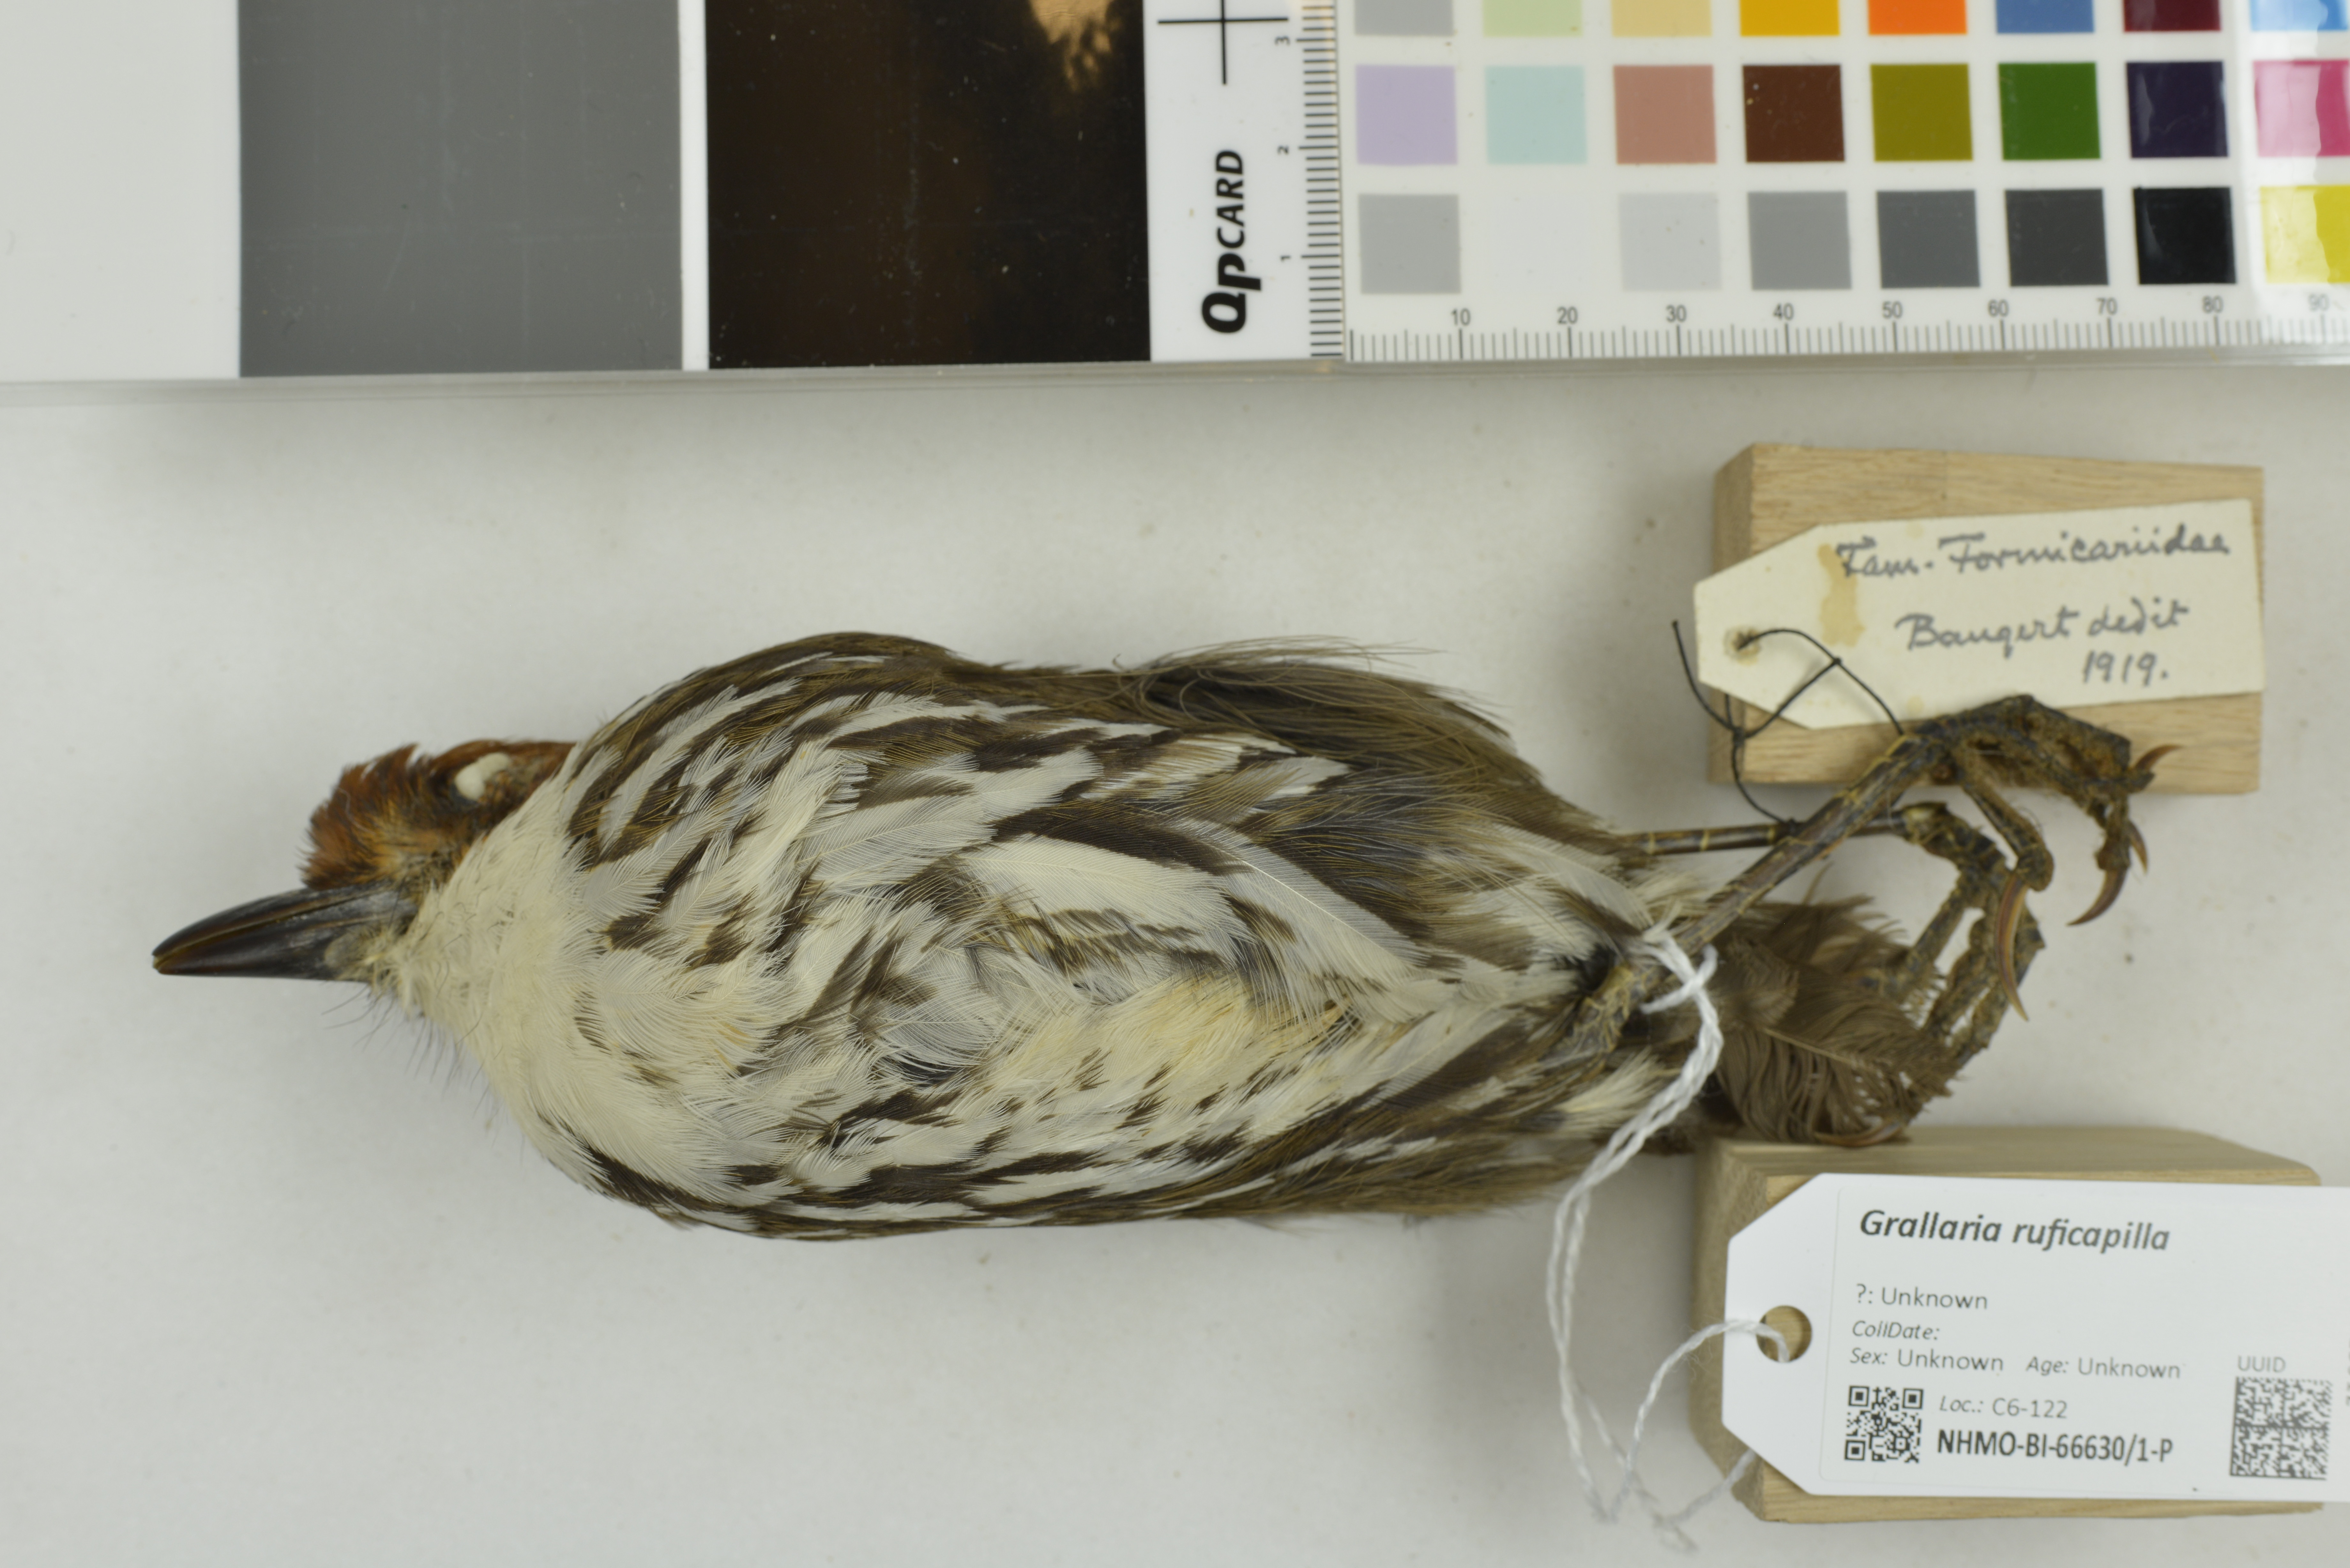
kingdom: Animalia
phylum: Chordata
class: Aves
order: Passeriformes
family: Grallariidae
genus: Grallaria
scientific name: Grallaria ruficapilla
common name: Chestnut-crowned antpitta
